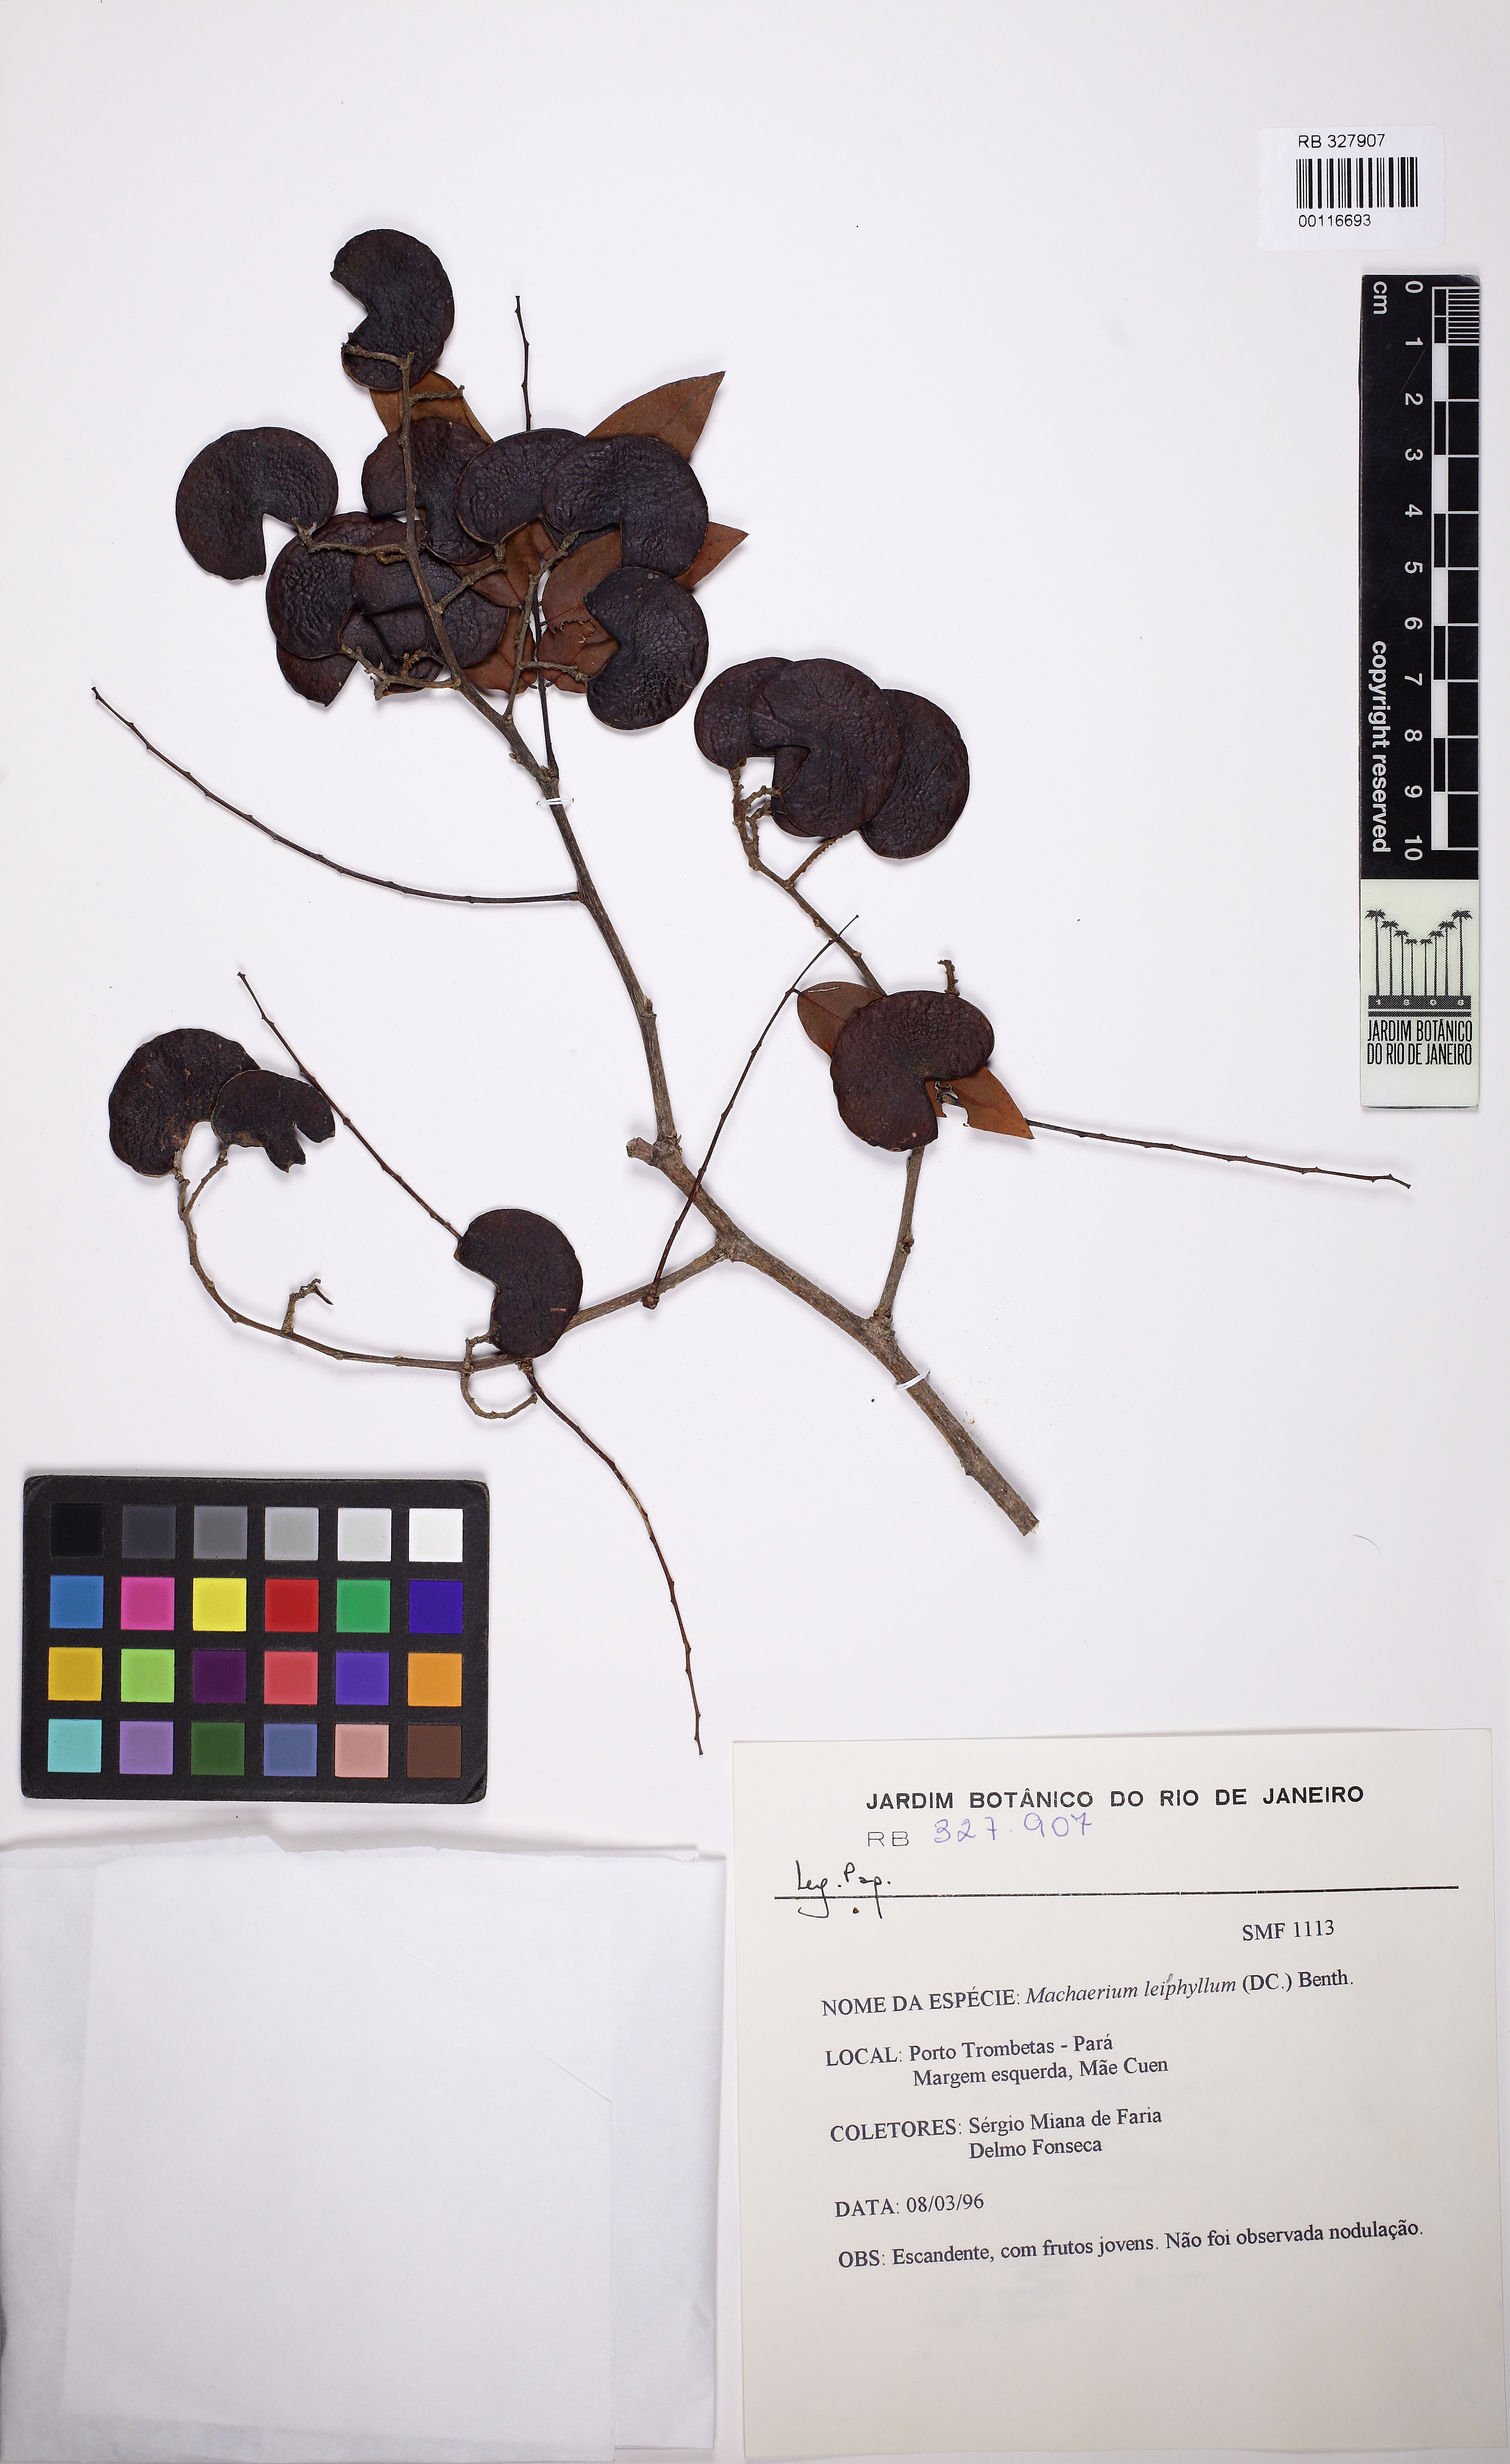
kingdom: Plantae
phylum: Tracheophyta
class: Magnoliopsida
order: Fabales
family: Fabaceae
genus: Machaerium
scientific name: Machaerium leiophyllum
